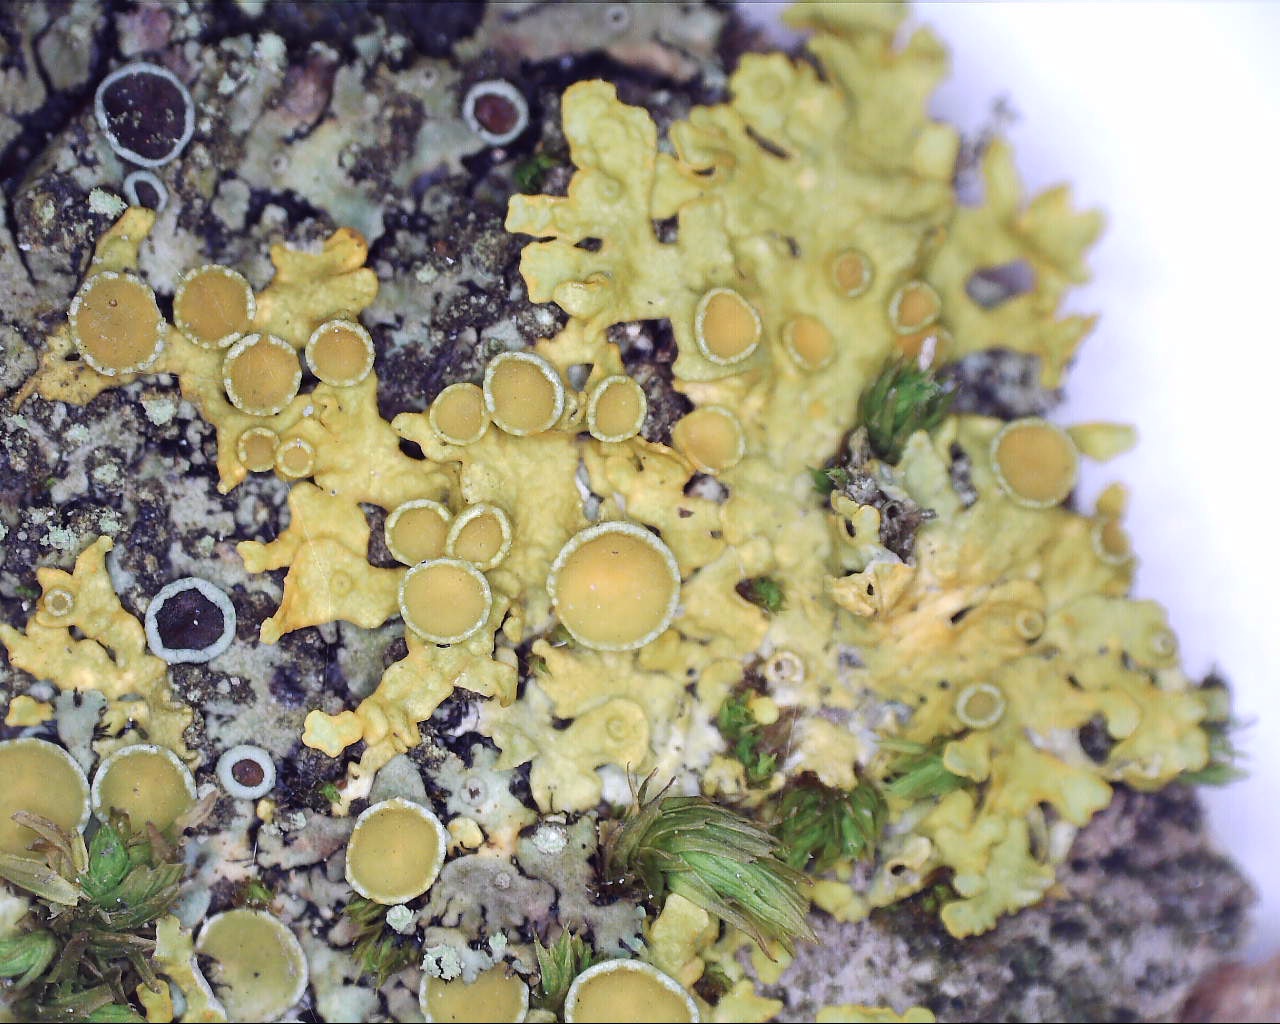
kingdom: Fungi
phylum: Ascomycota
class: Lecanoromycetes
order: Teloschistales
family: Teloschistaceae
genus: Xanthoria
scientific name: Xanthoria parietina
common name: almindelig væggelav
